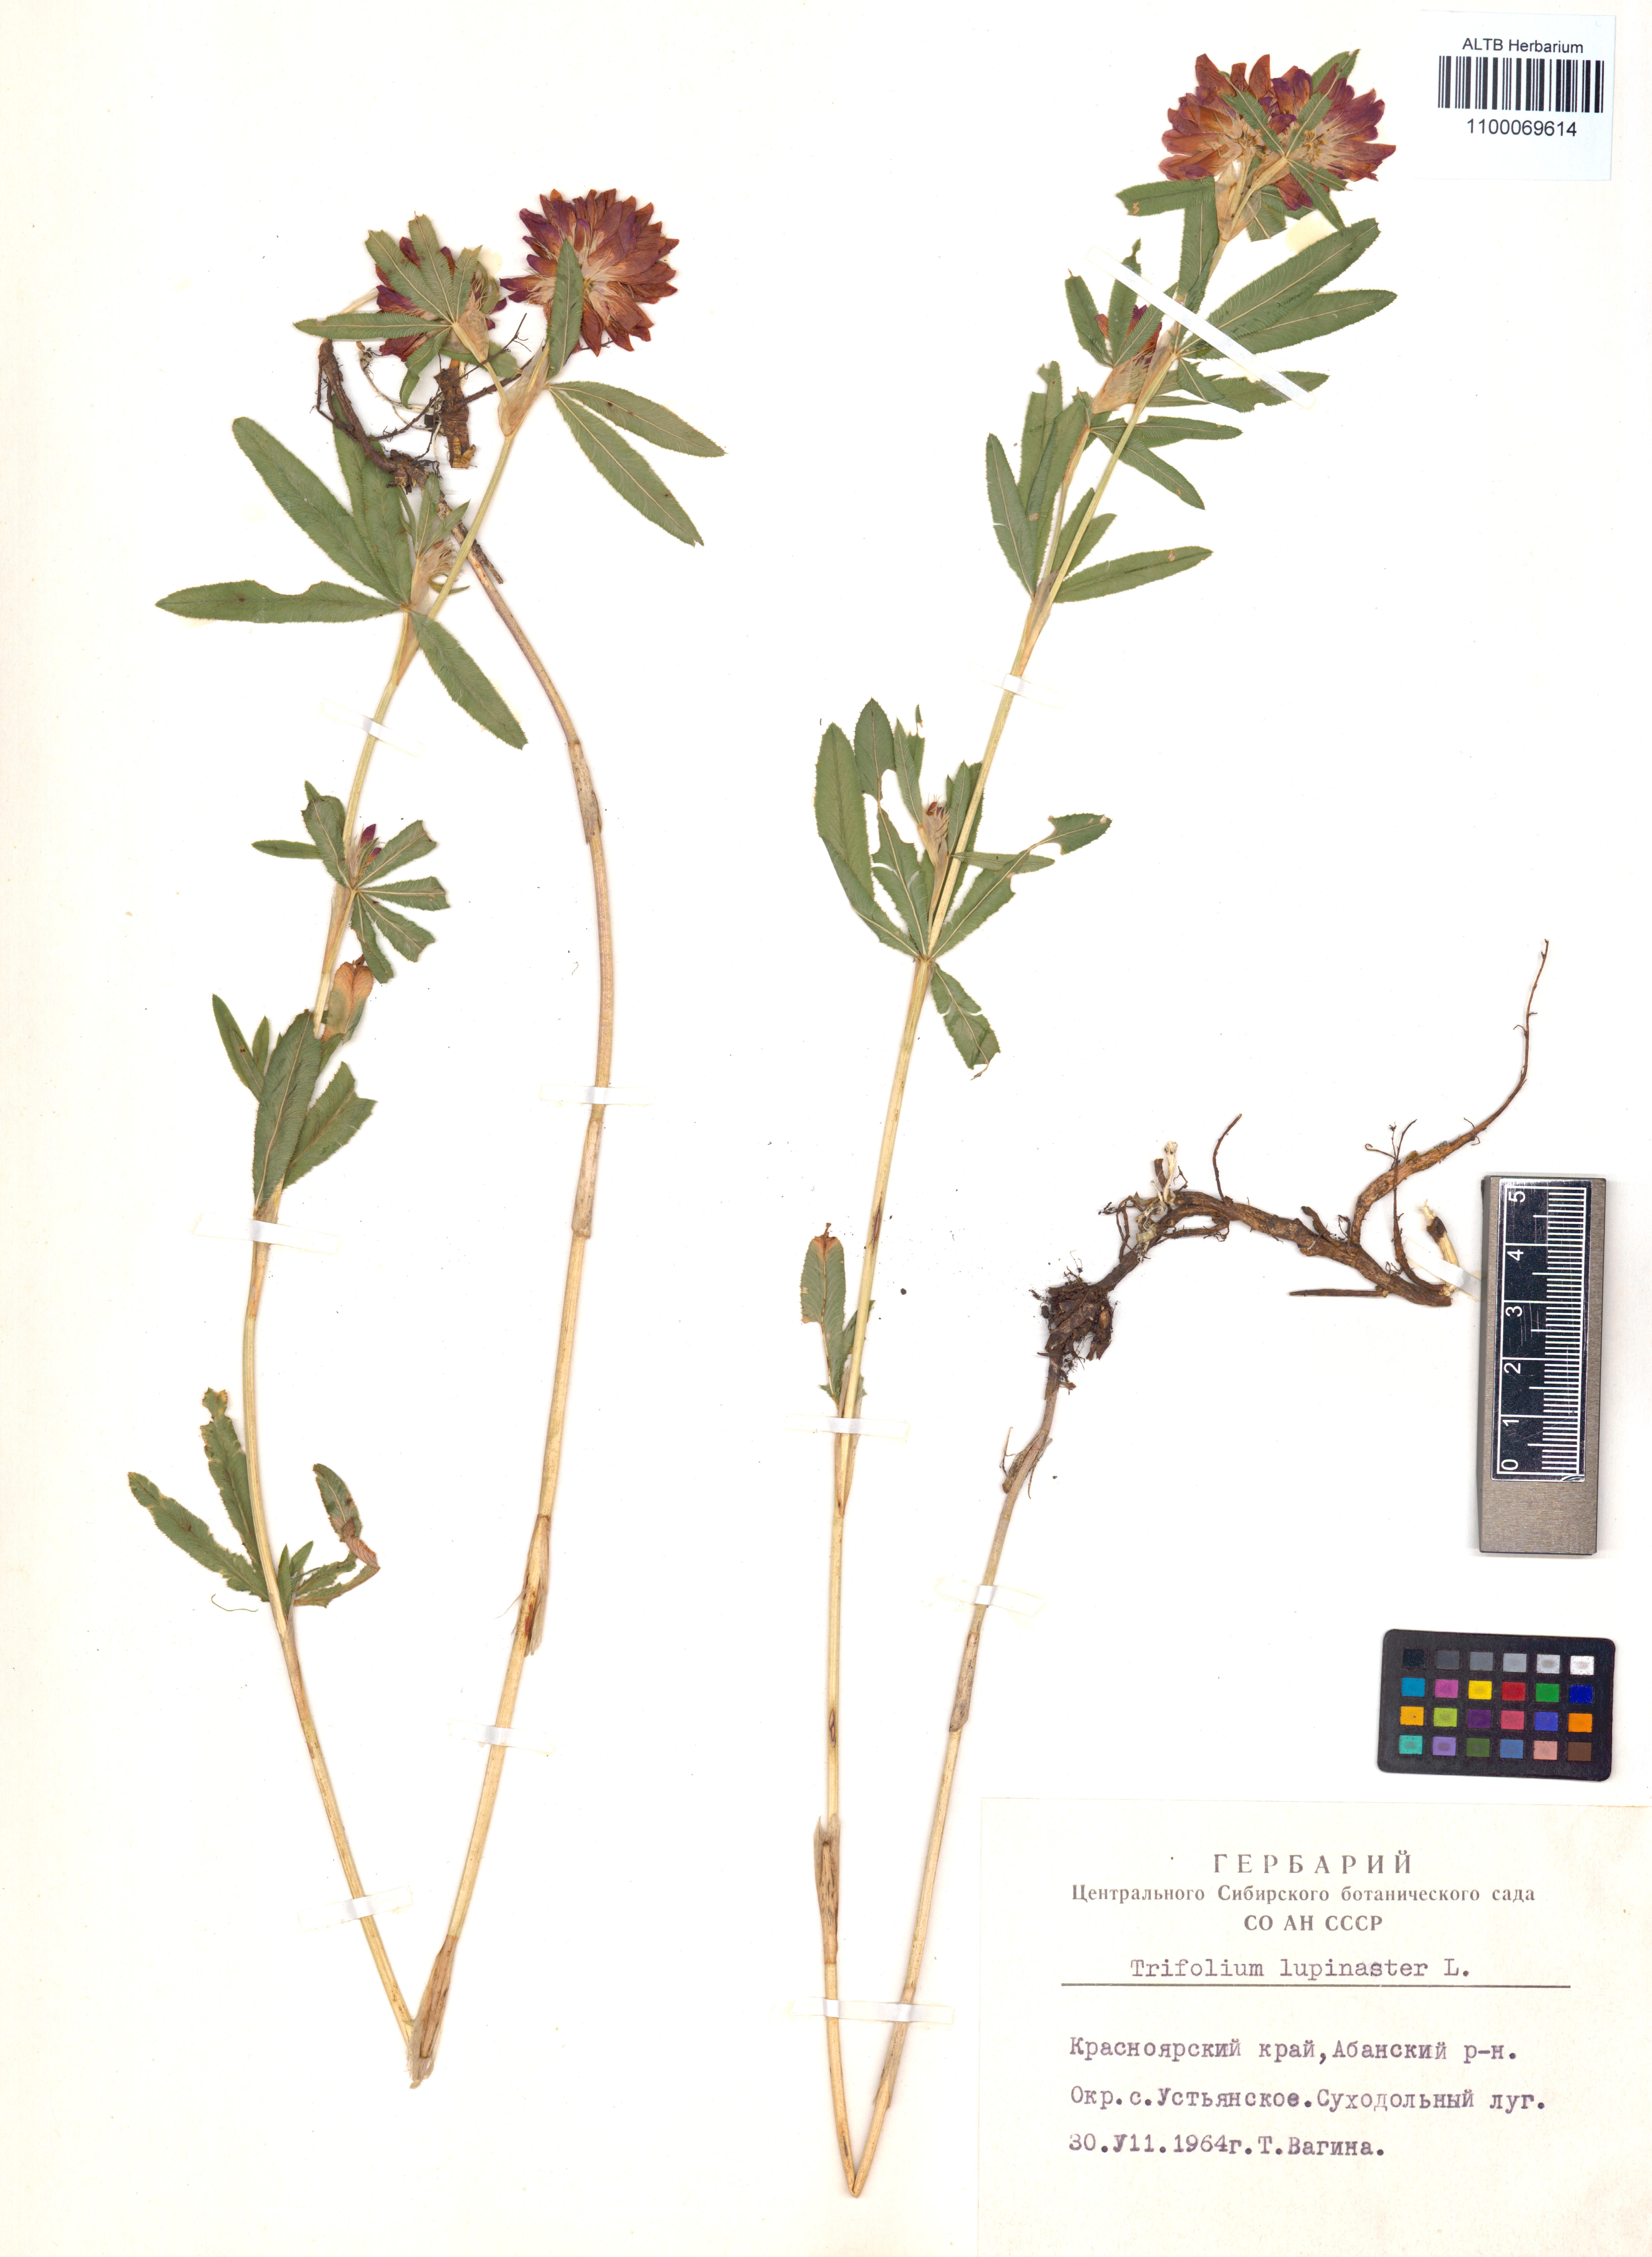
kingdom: Plantae
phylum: Tracheophyta
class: Magnoliopsida
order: Fabales
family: Fabaceae
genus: Trifolium
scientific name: Trifolium lupinaster
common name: Lupine clover
